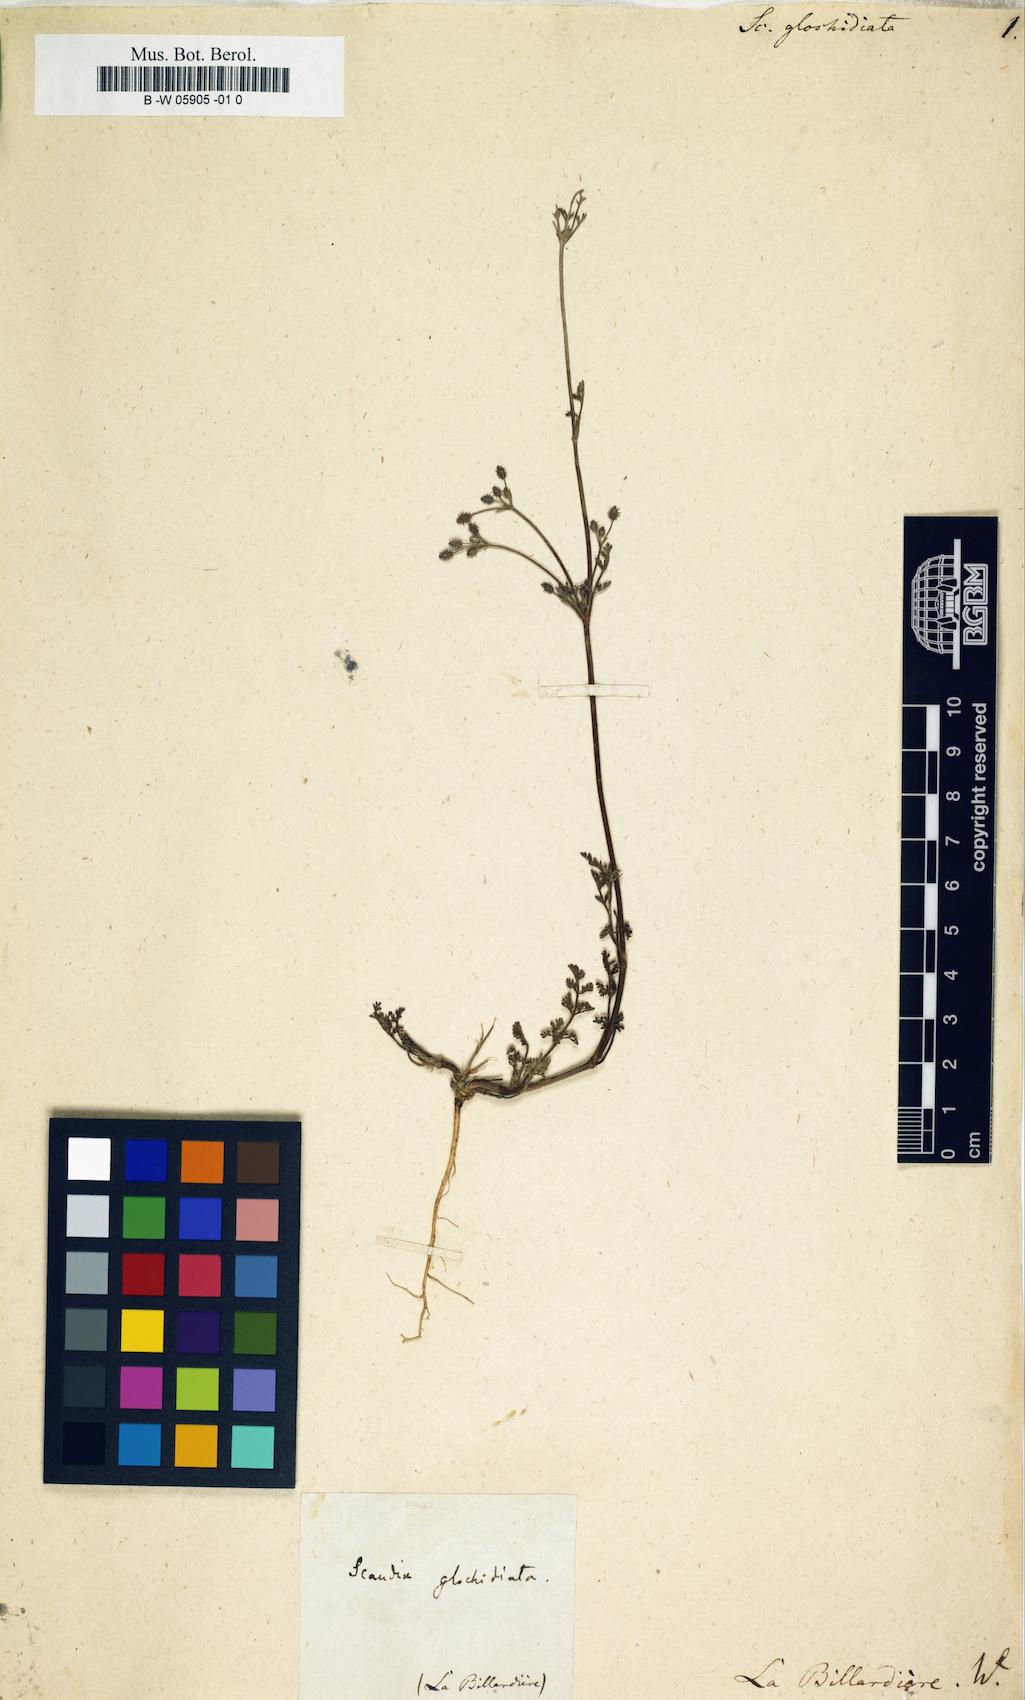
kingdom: Plantae
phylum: Tracheophyta
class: Magnoliopsida
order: Apiales
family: Apiaceae
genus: Daucus
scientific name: Daucus glochidiatus
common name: Australian carrot
